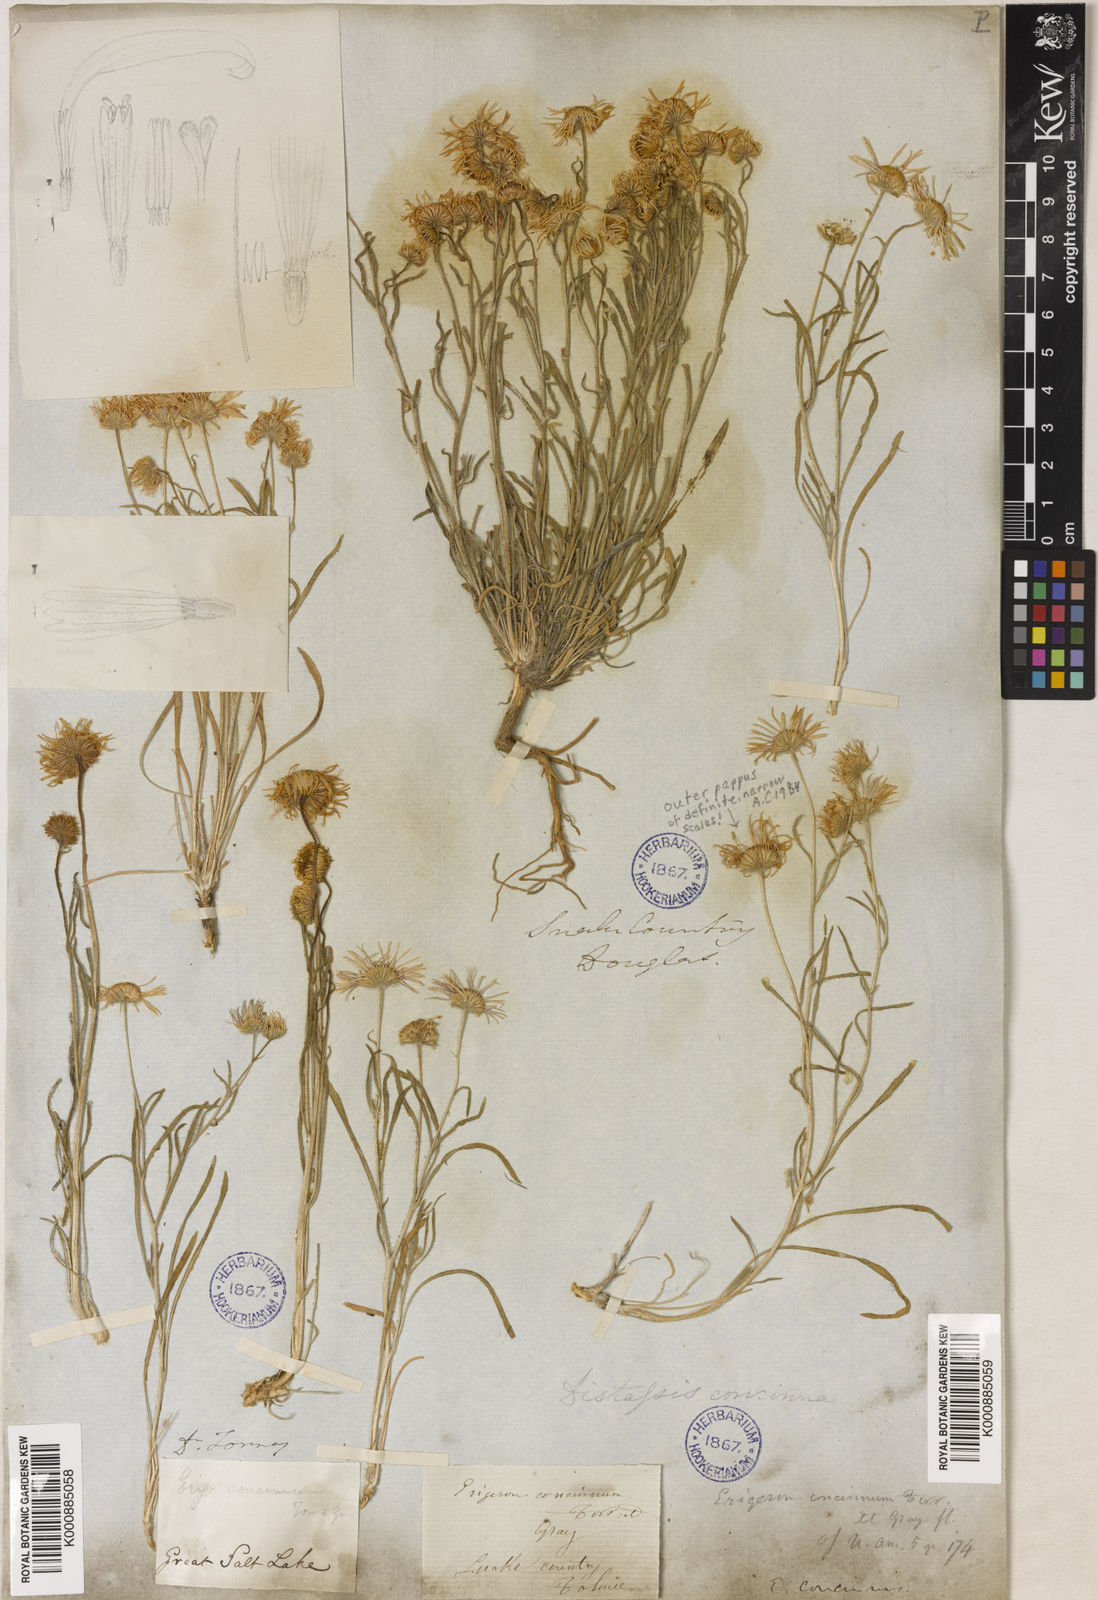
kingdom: Plantae
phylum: Tracheophyta
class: Magnoliopsida
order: Asterales
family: Asteraceae
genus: Erigeron
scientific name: Erigeron concinnus
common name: Navajo fleabane
